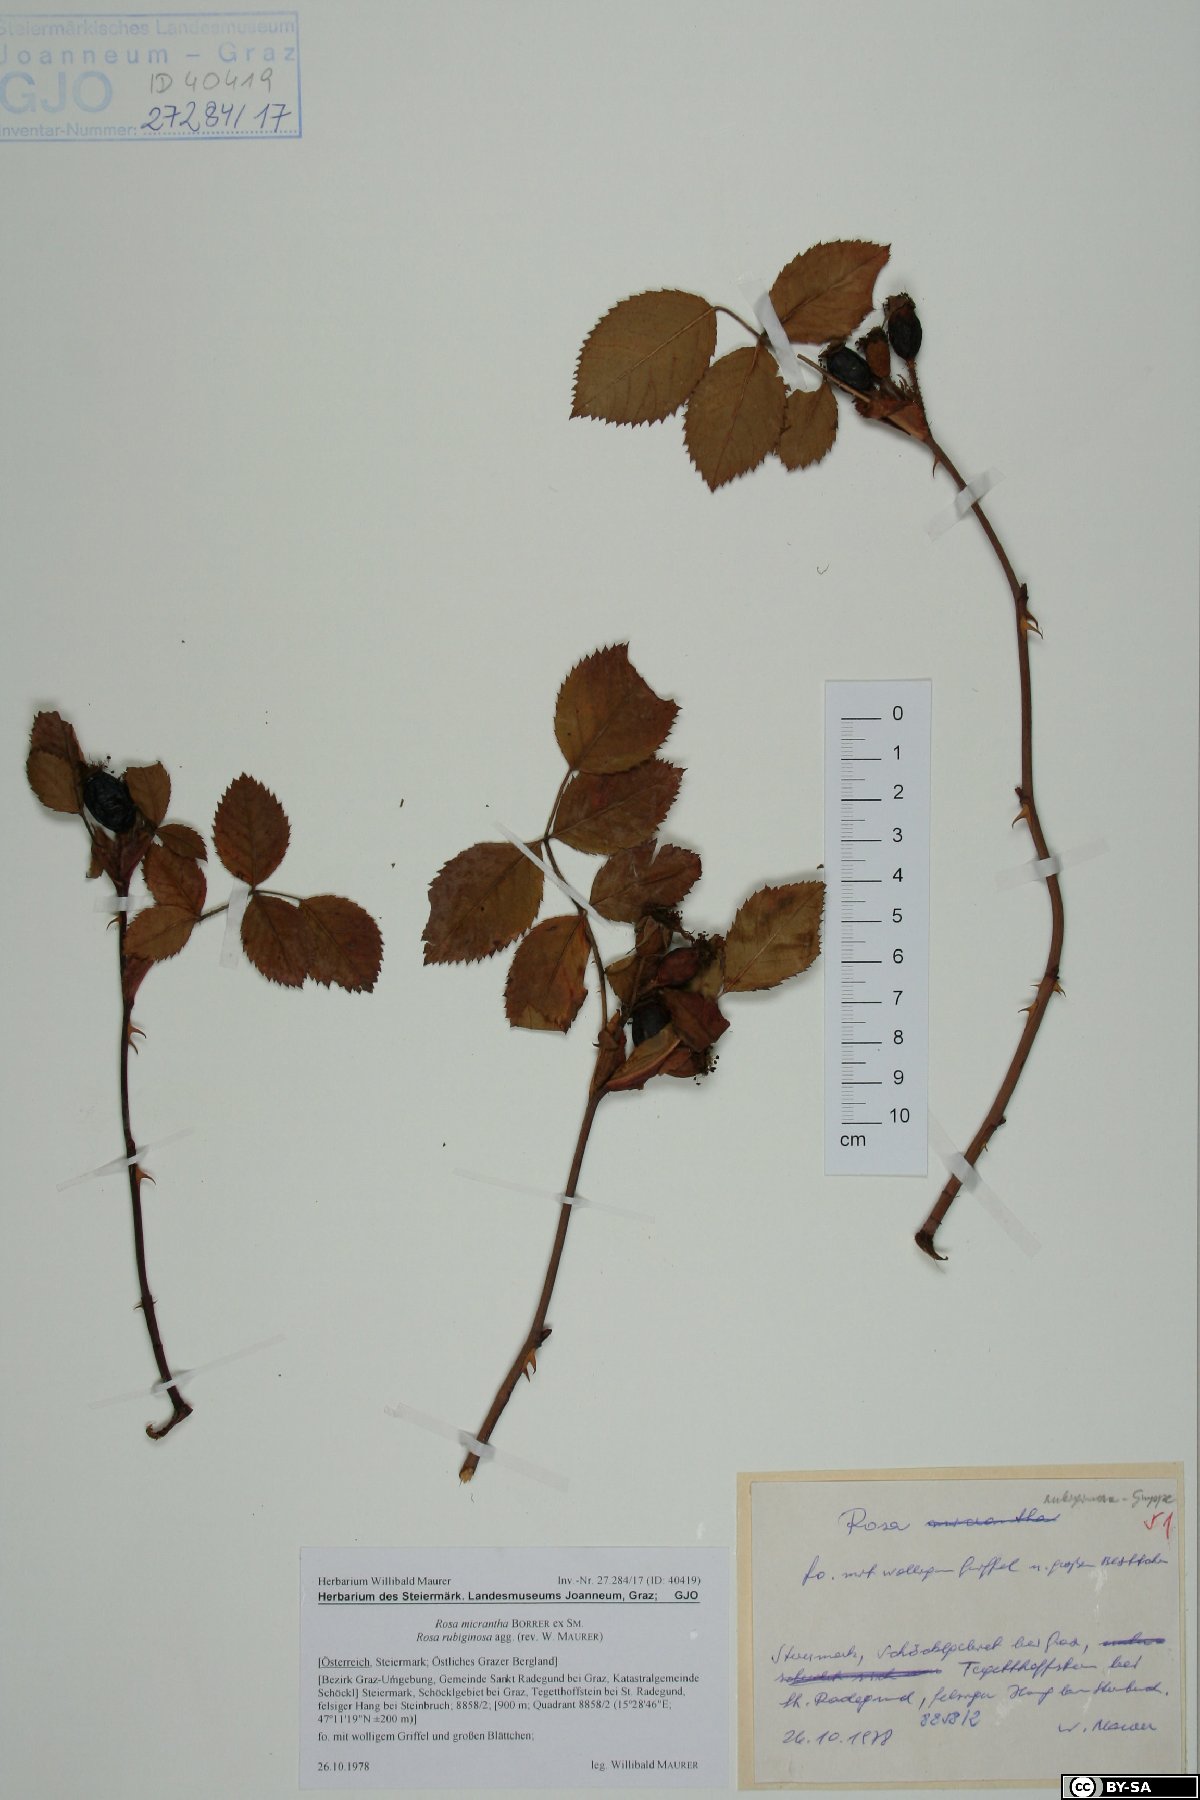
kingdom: Plantae
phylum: Tracheophyta
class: Magnoliopsida
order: Rosales
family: Rosaceae
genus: Rosa
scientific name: Rosa rubiginosa
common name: Sweet-briar
